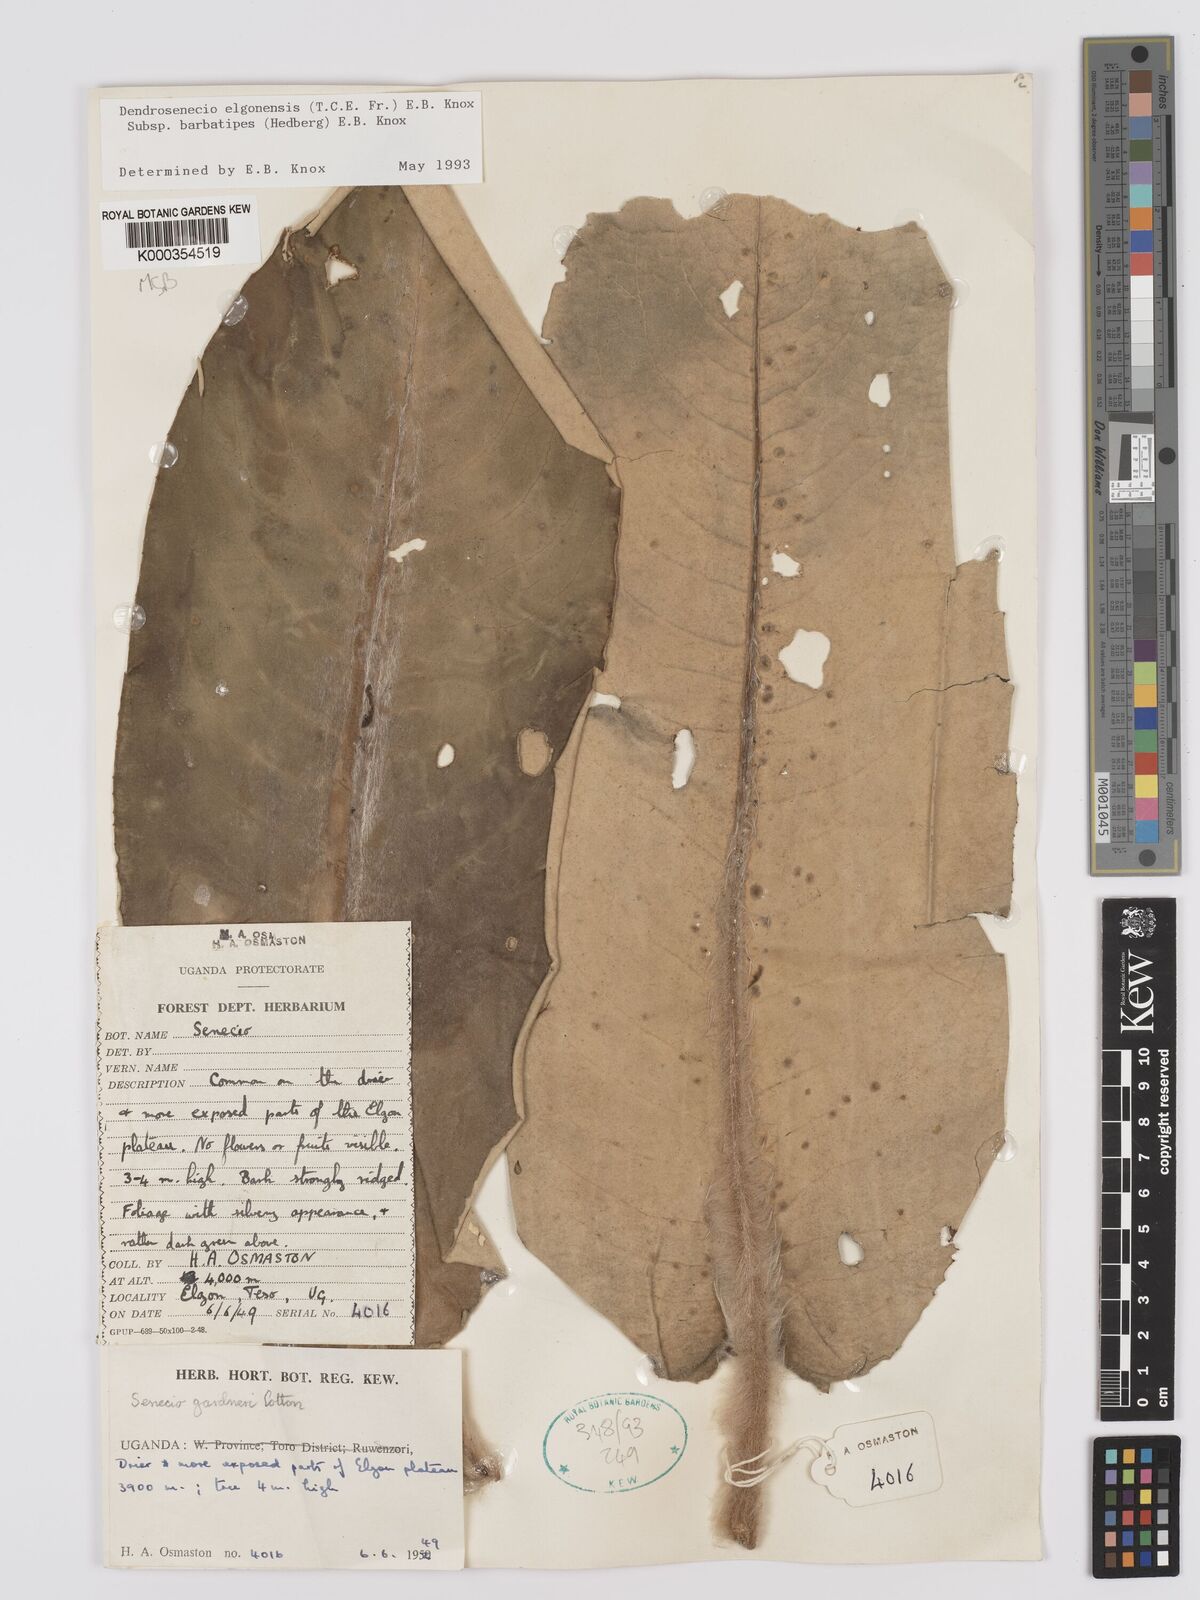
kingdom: Plantae
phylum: Tracheophyta
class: Magnoliopsida
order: Asterales
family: Asteraceae
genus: Dendrosenecio
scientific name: Dendrosenecio elgonensis
